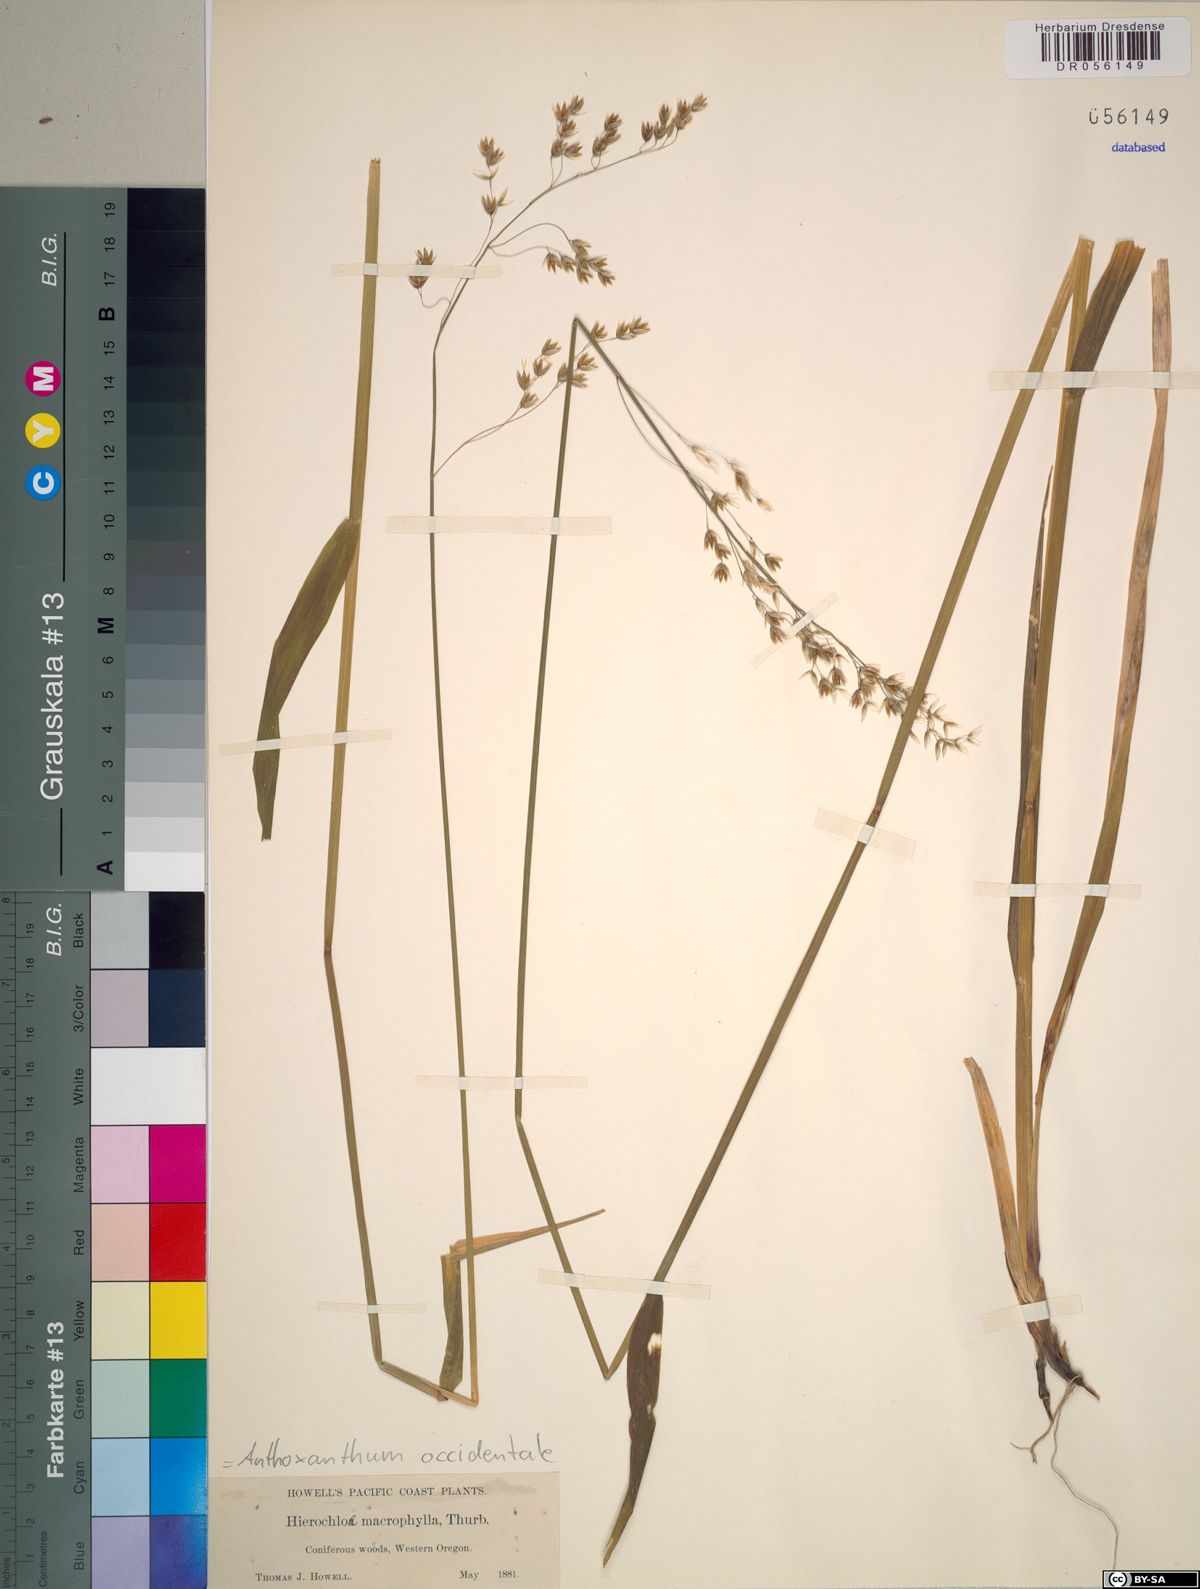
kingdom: Plantae
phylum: Tracheophyta
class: Liliopsida
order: Poales
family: Poaceae
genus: Anthoxanthum
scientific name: Anthoxanthum occidentale
